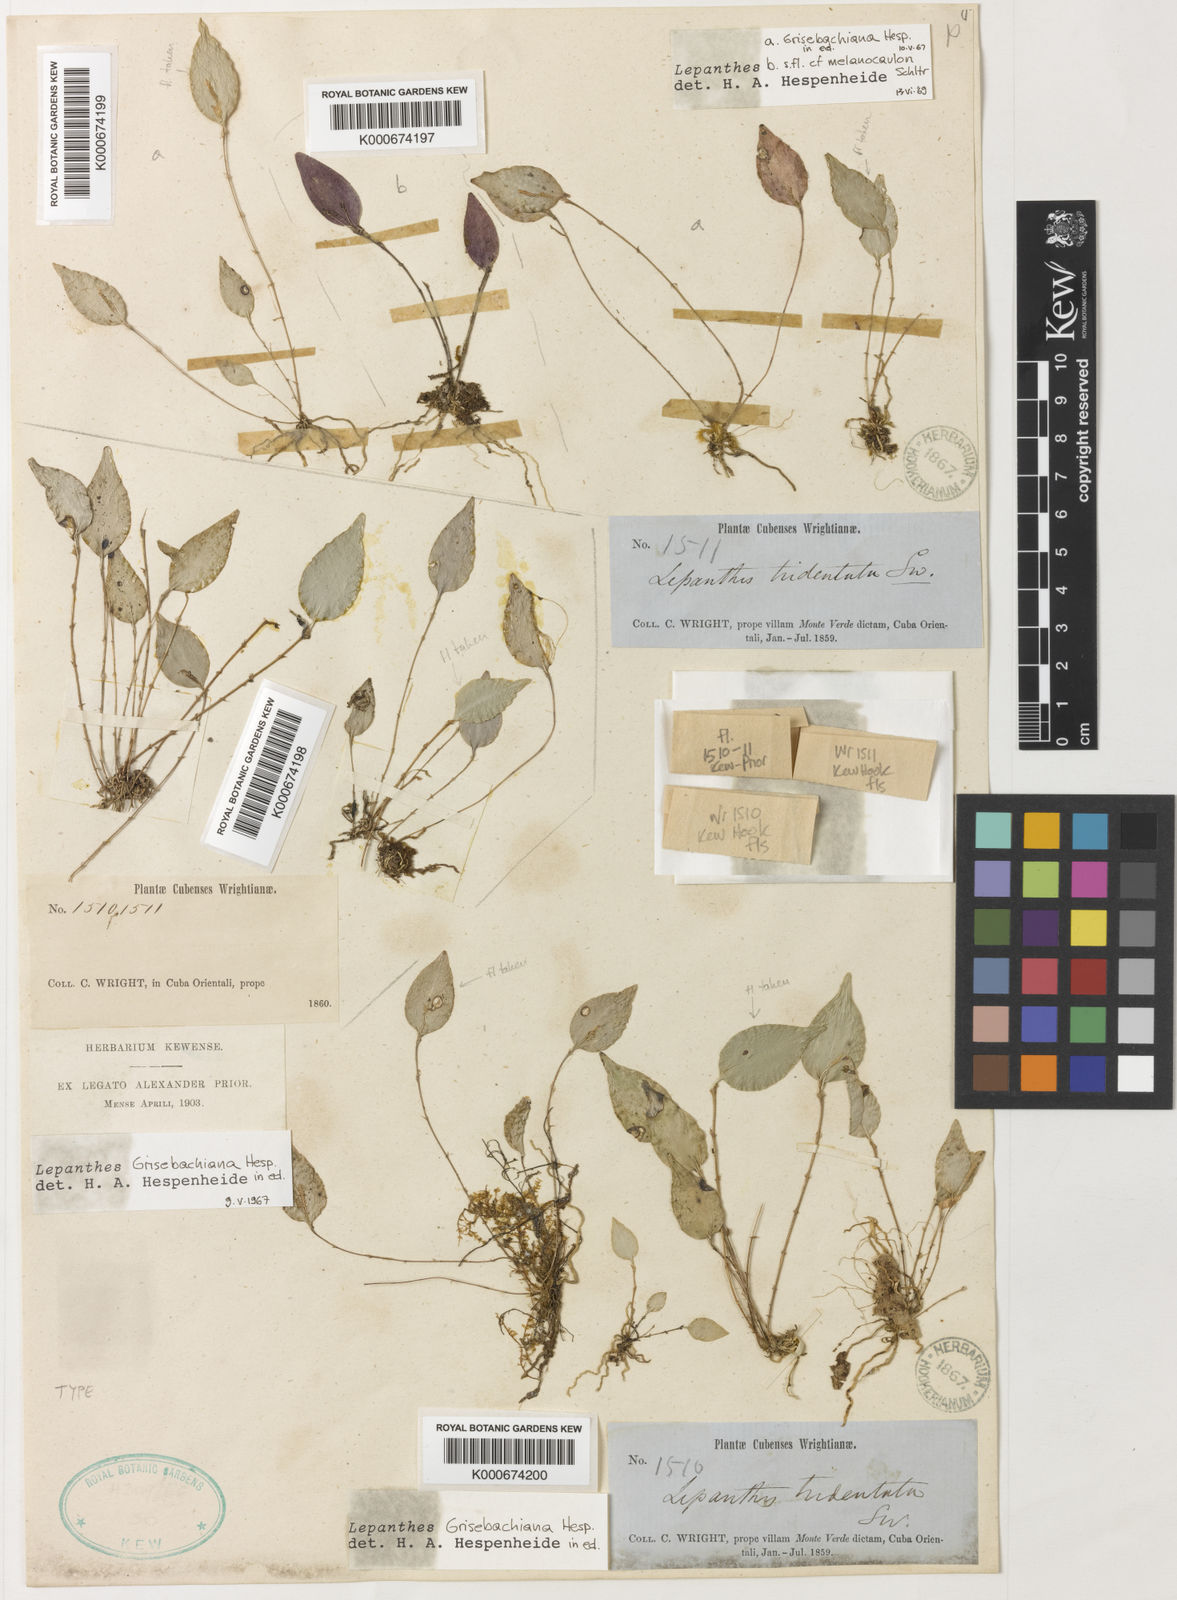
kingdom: Plantae
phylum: Tracheophyta
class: Liliopsida
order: Asparagales
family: Orchidaceae
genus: Lepanthes
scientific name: Lepanthes grisebachiana
